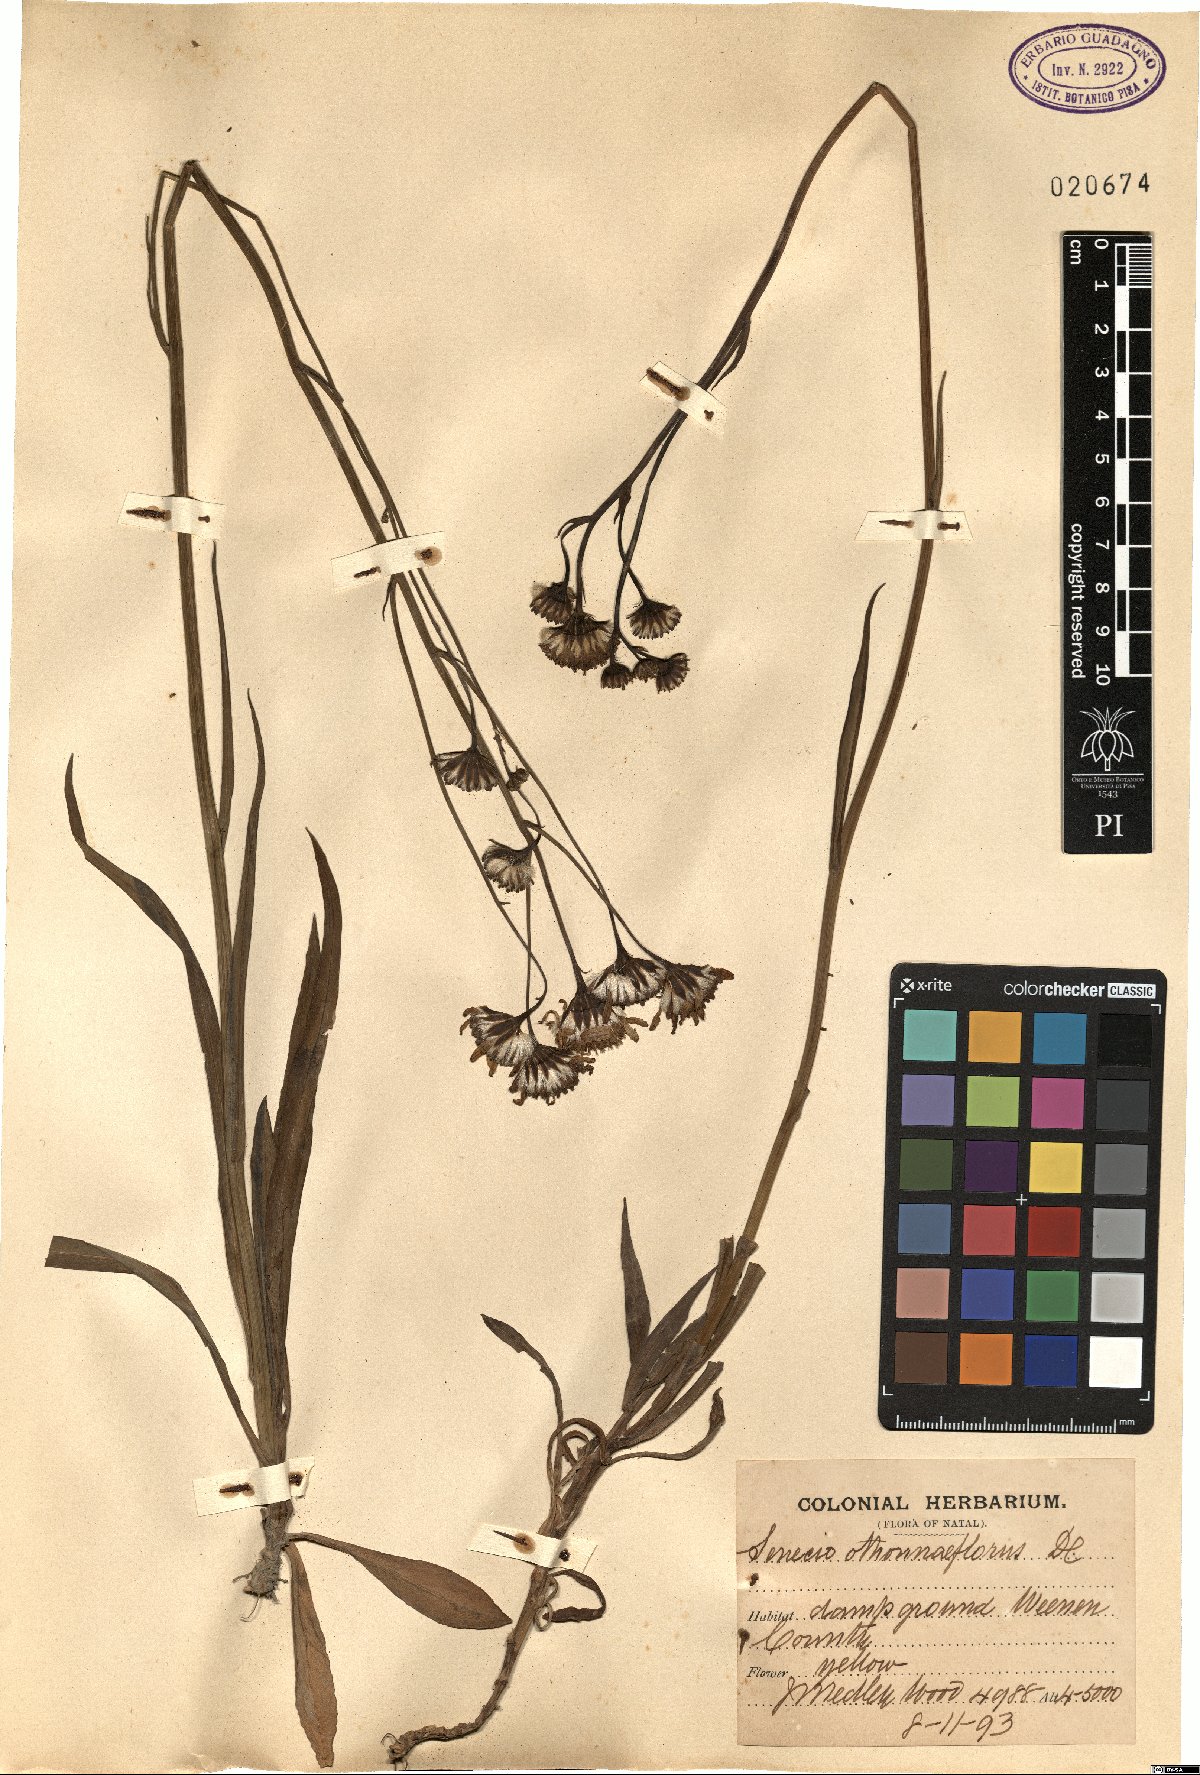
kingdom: Plantae
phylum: Tracheophyta
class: Magnoliopsida
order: Asterales
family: Asteraceae
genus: Senecio
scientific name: Senecio othonniflorus
